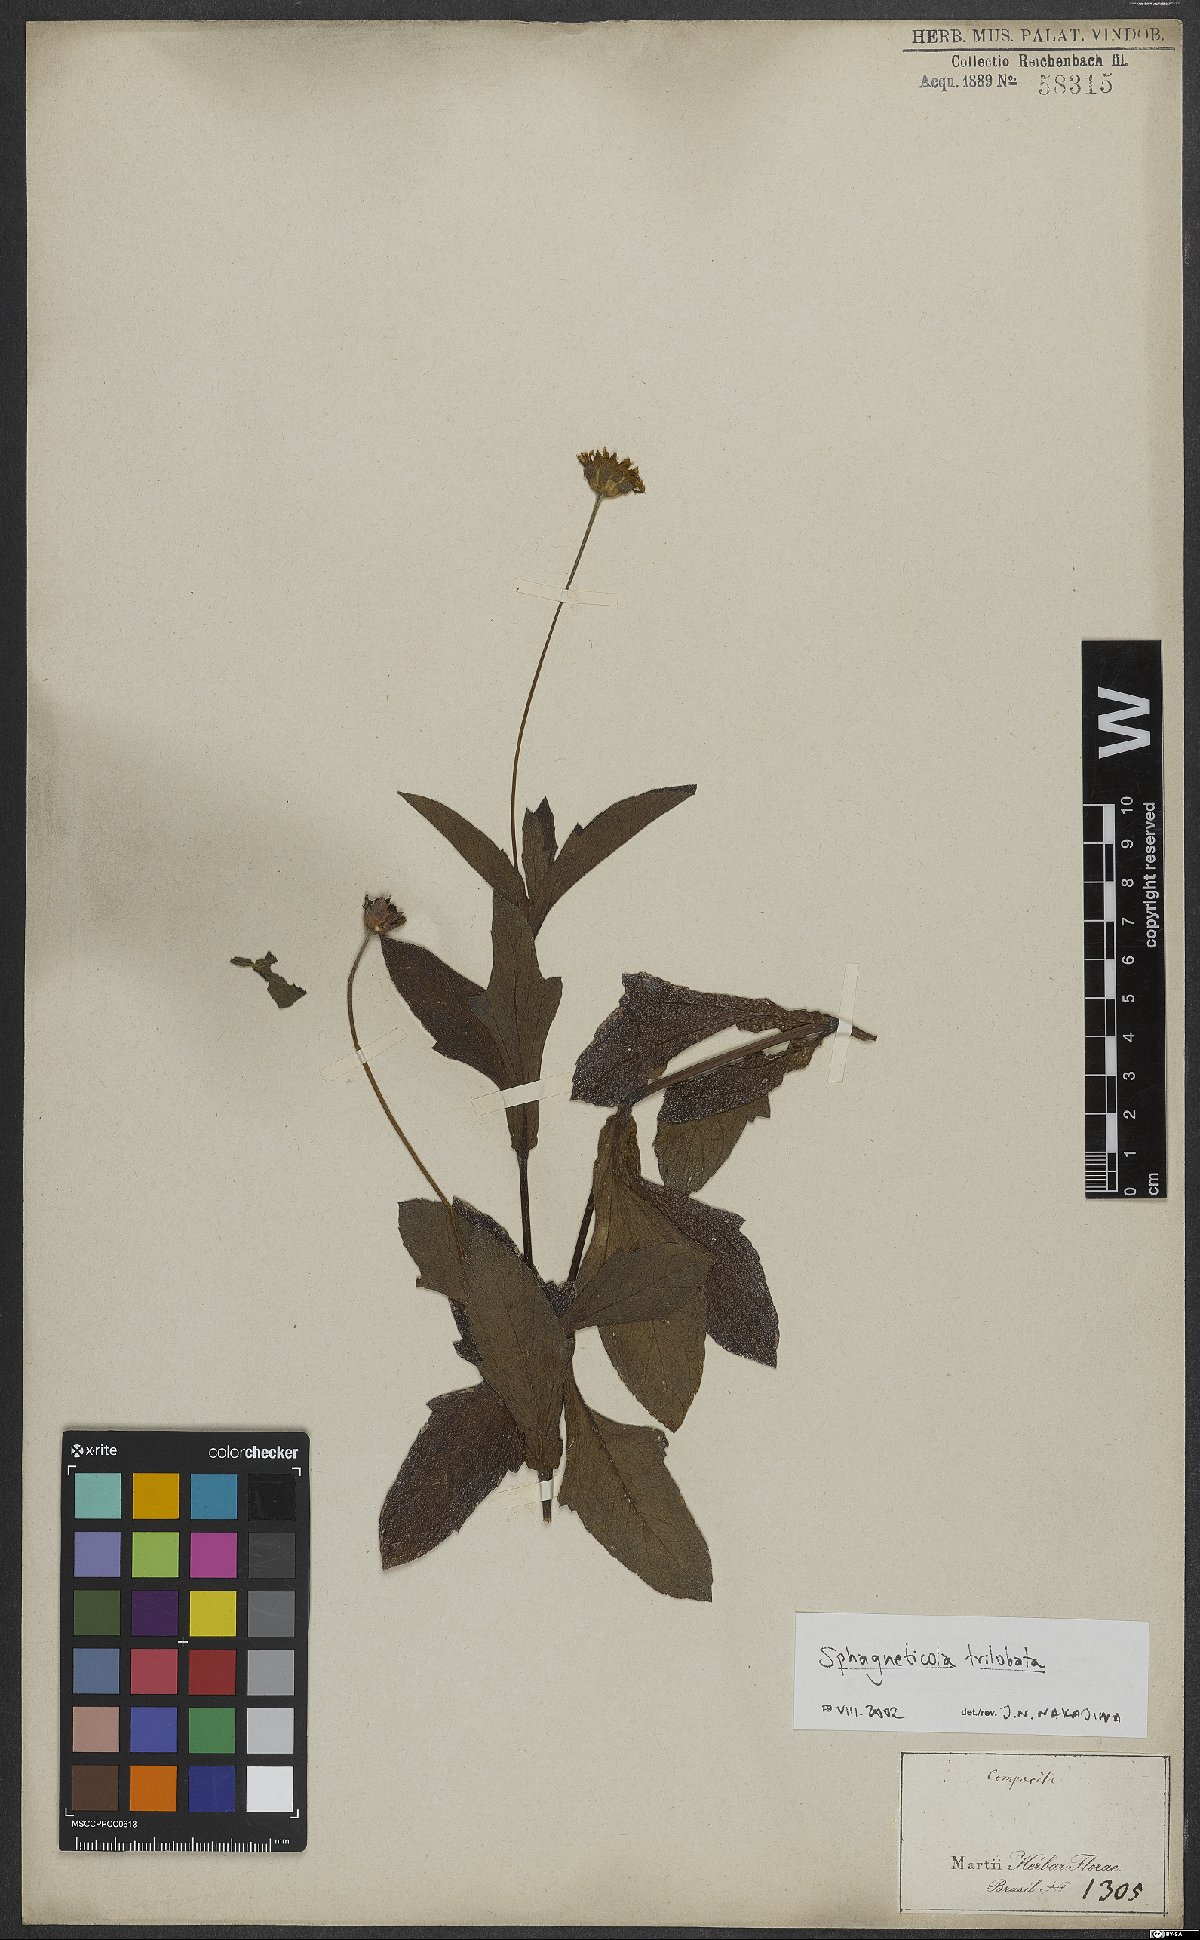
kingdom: Plantae
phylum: Tracheophyta
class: Magnoliopsida
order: Asterales
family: Asteraceae
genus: Sphagneticola
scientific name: Sphagneticola trilobata
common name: Bay biscayne creeping-oxeye
